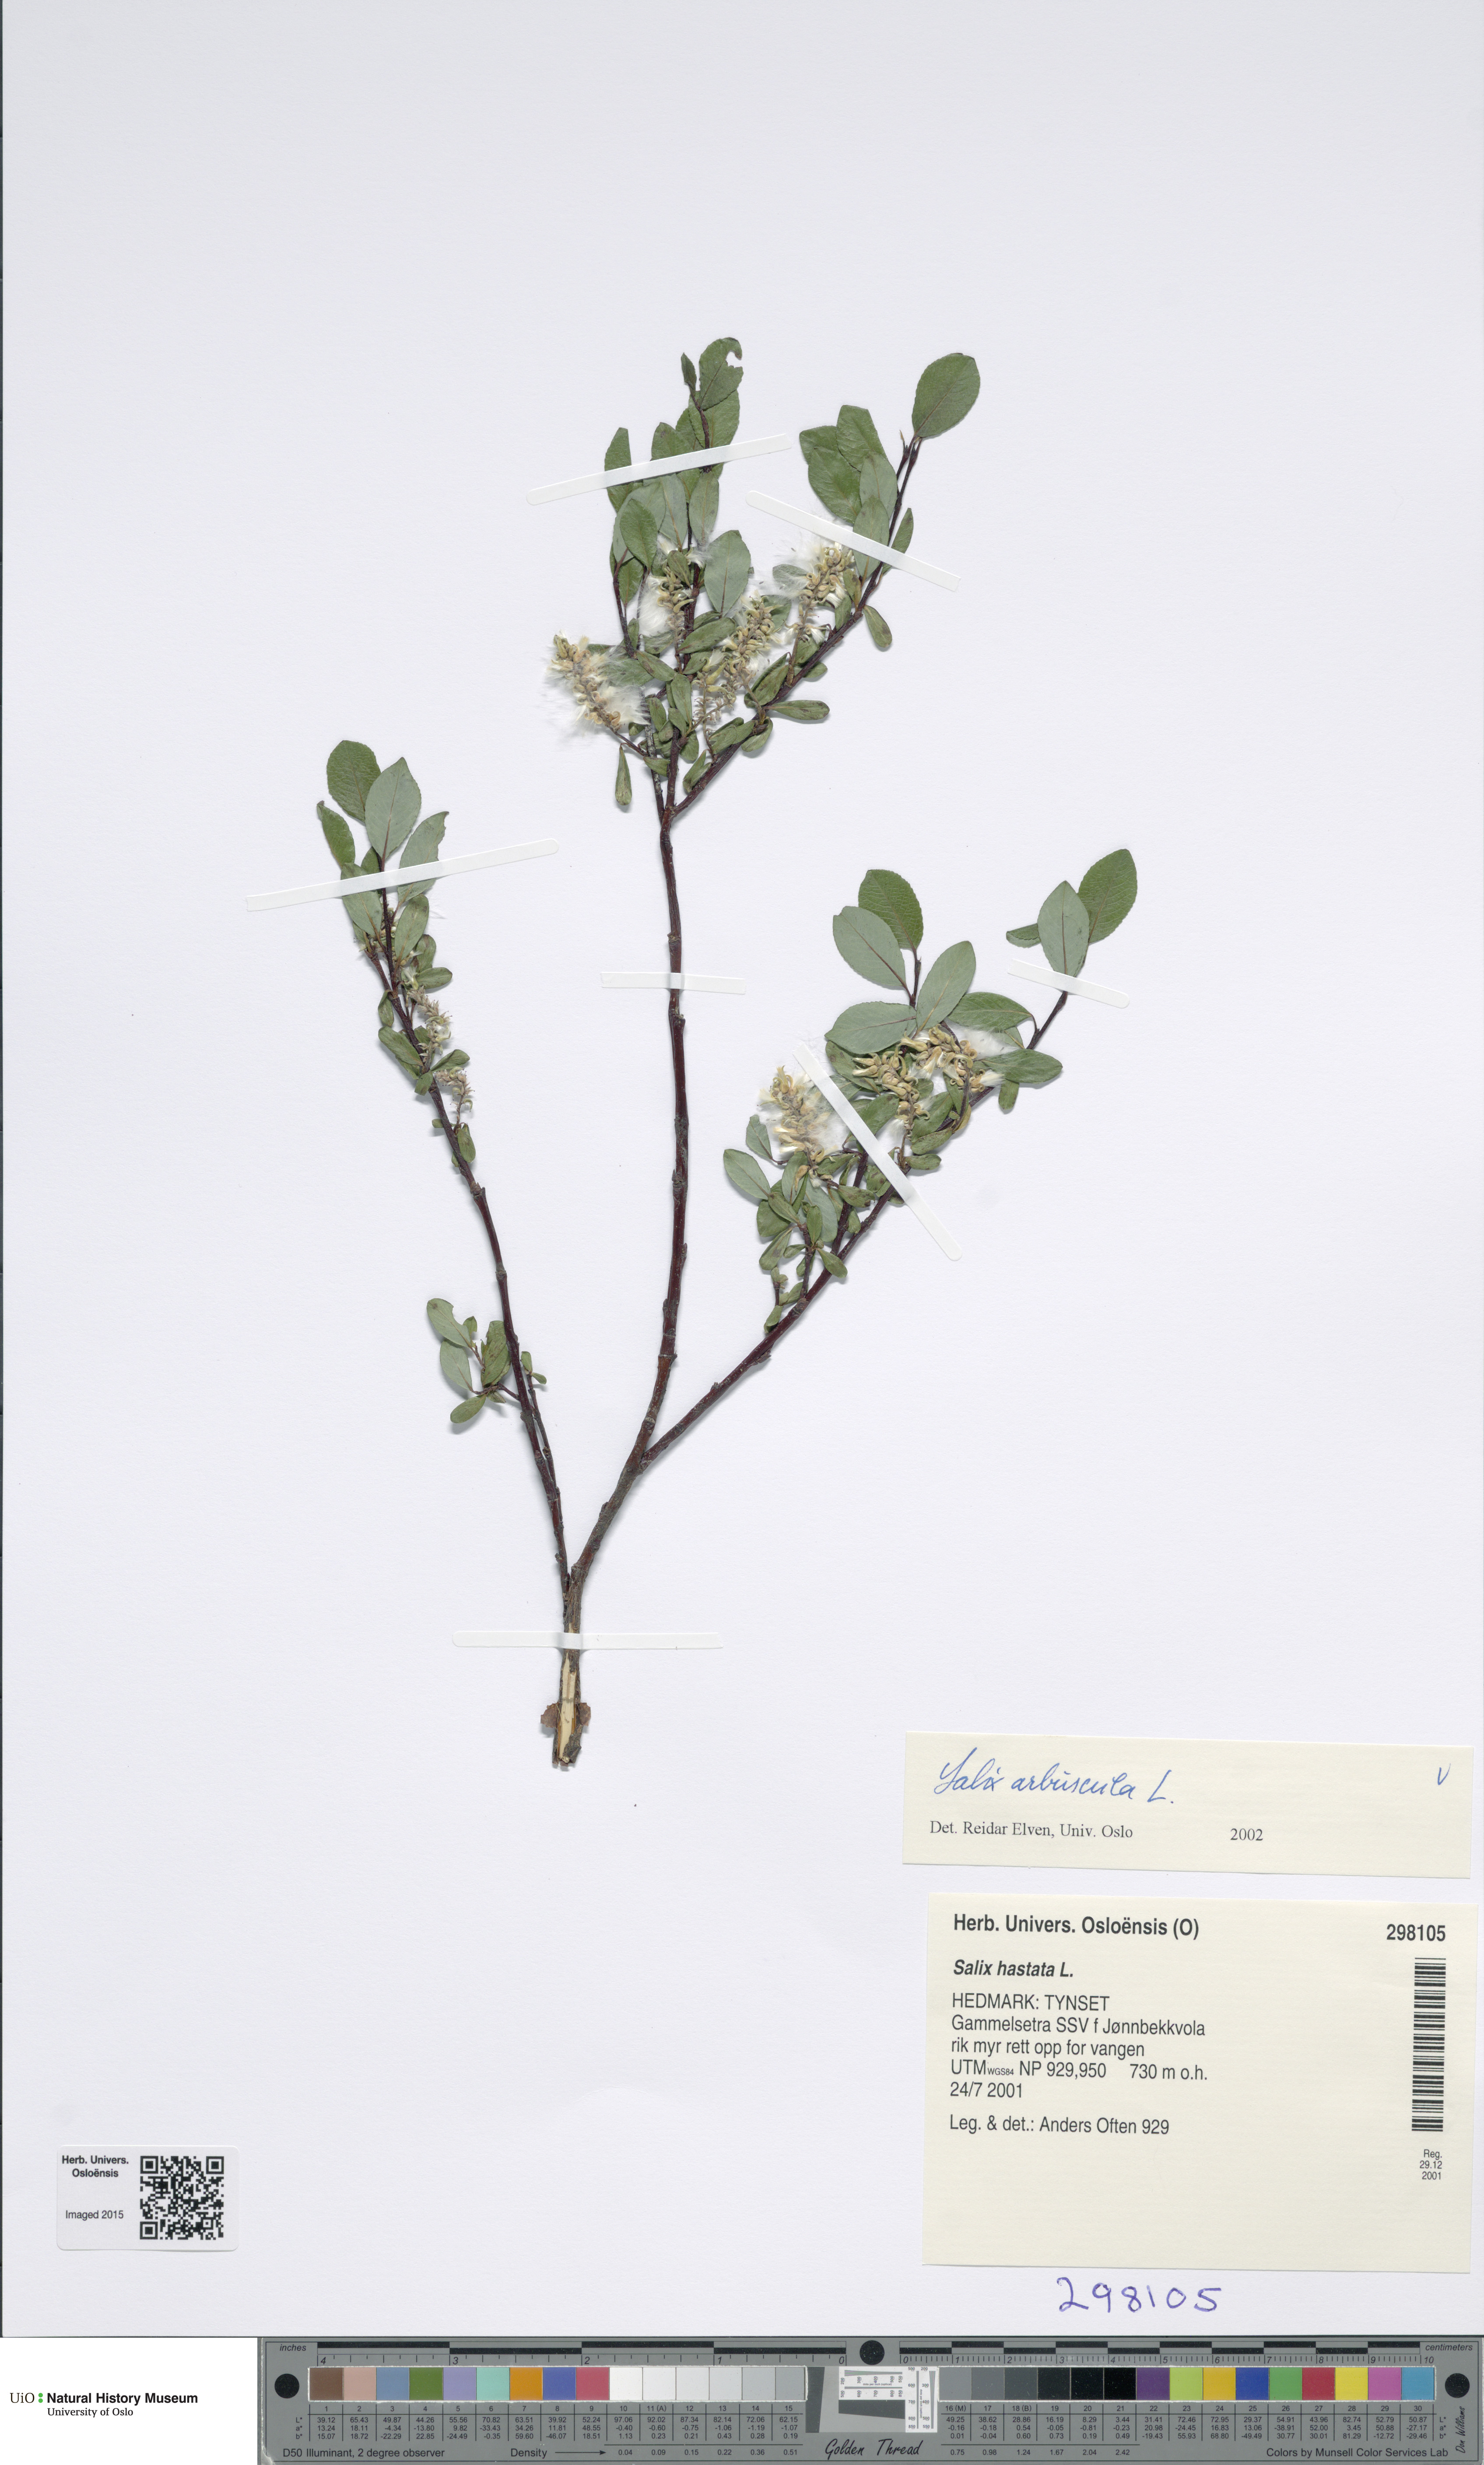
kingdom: Plantae
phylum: Tracheophyta
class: Magnoliopsida
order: Malpighiales
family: Salicaceae
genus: Salix
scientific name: Salix arbuscula
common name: Mountain willow
